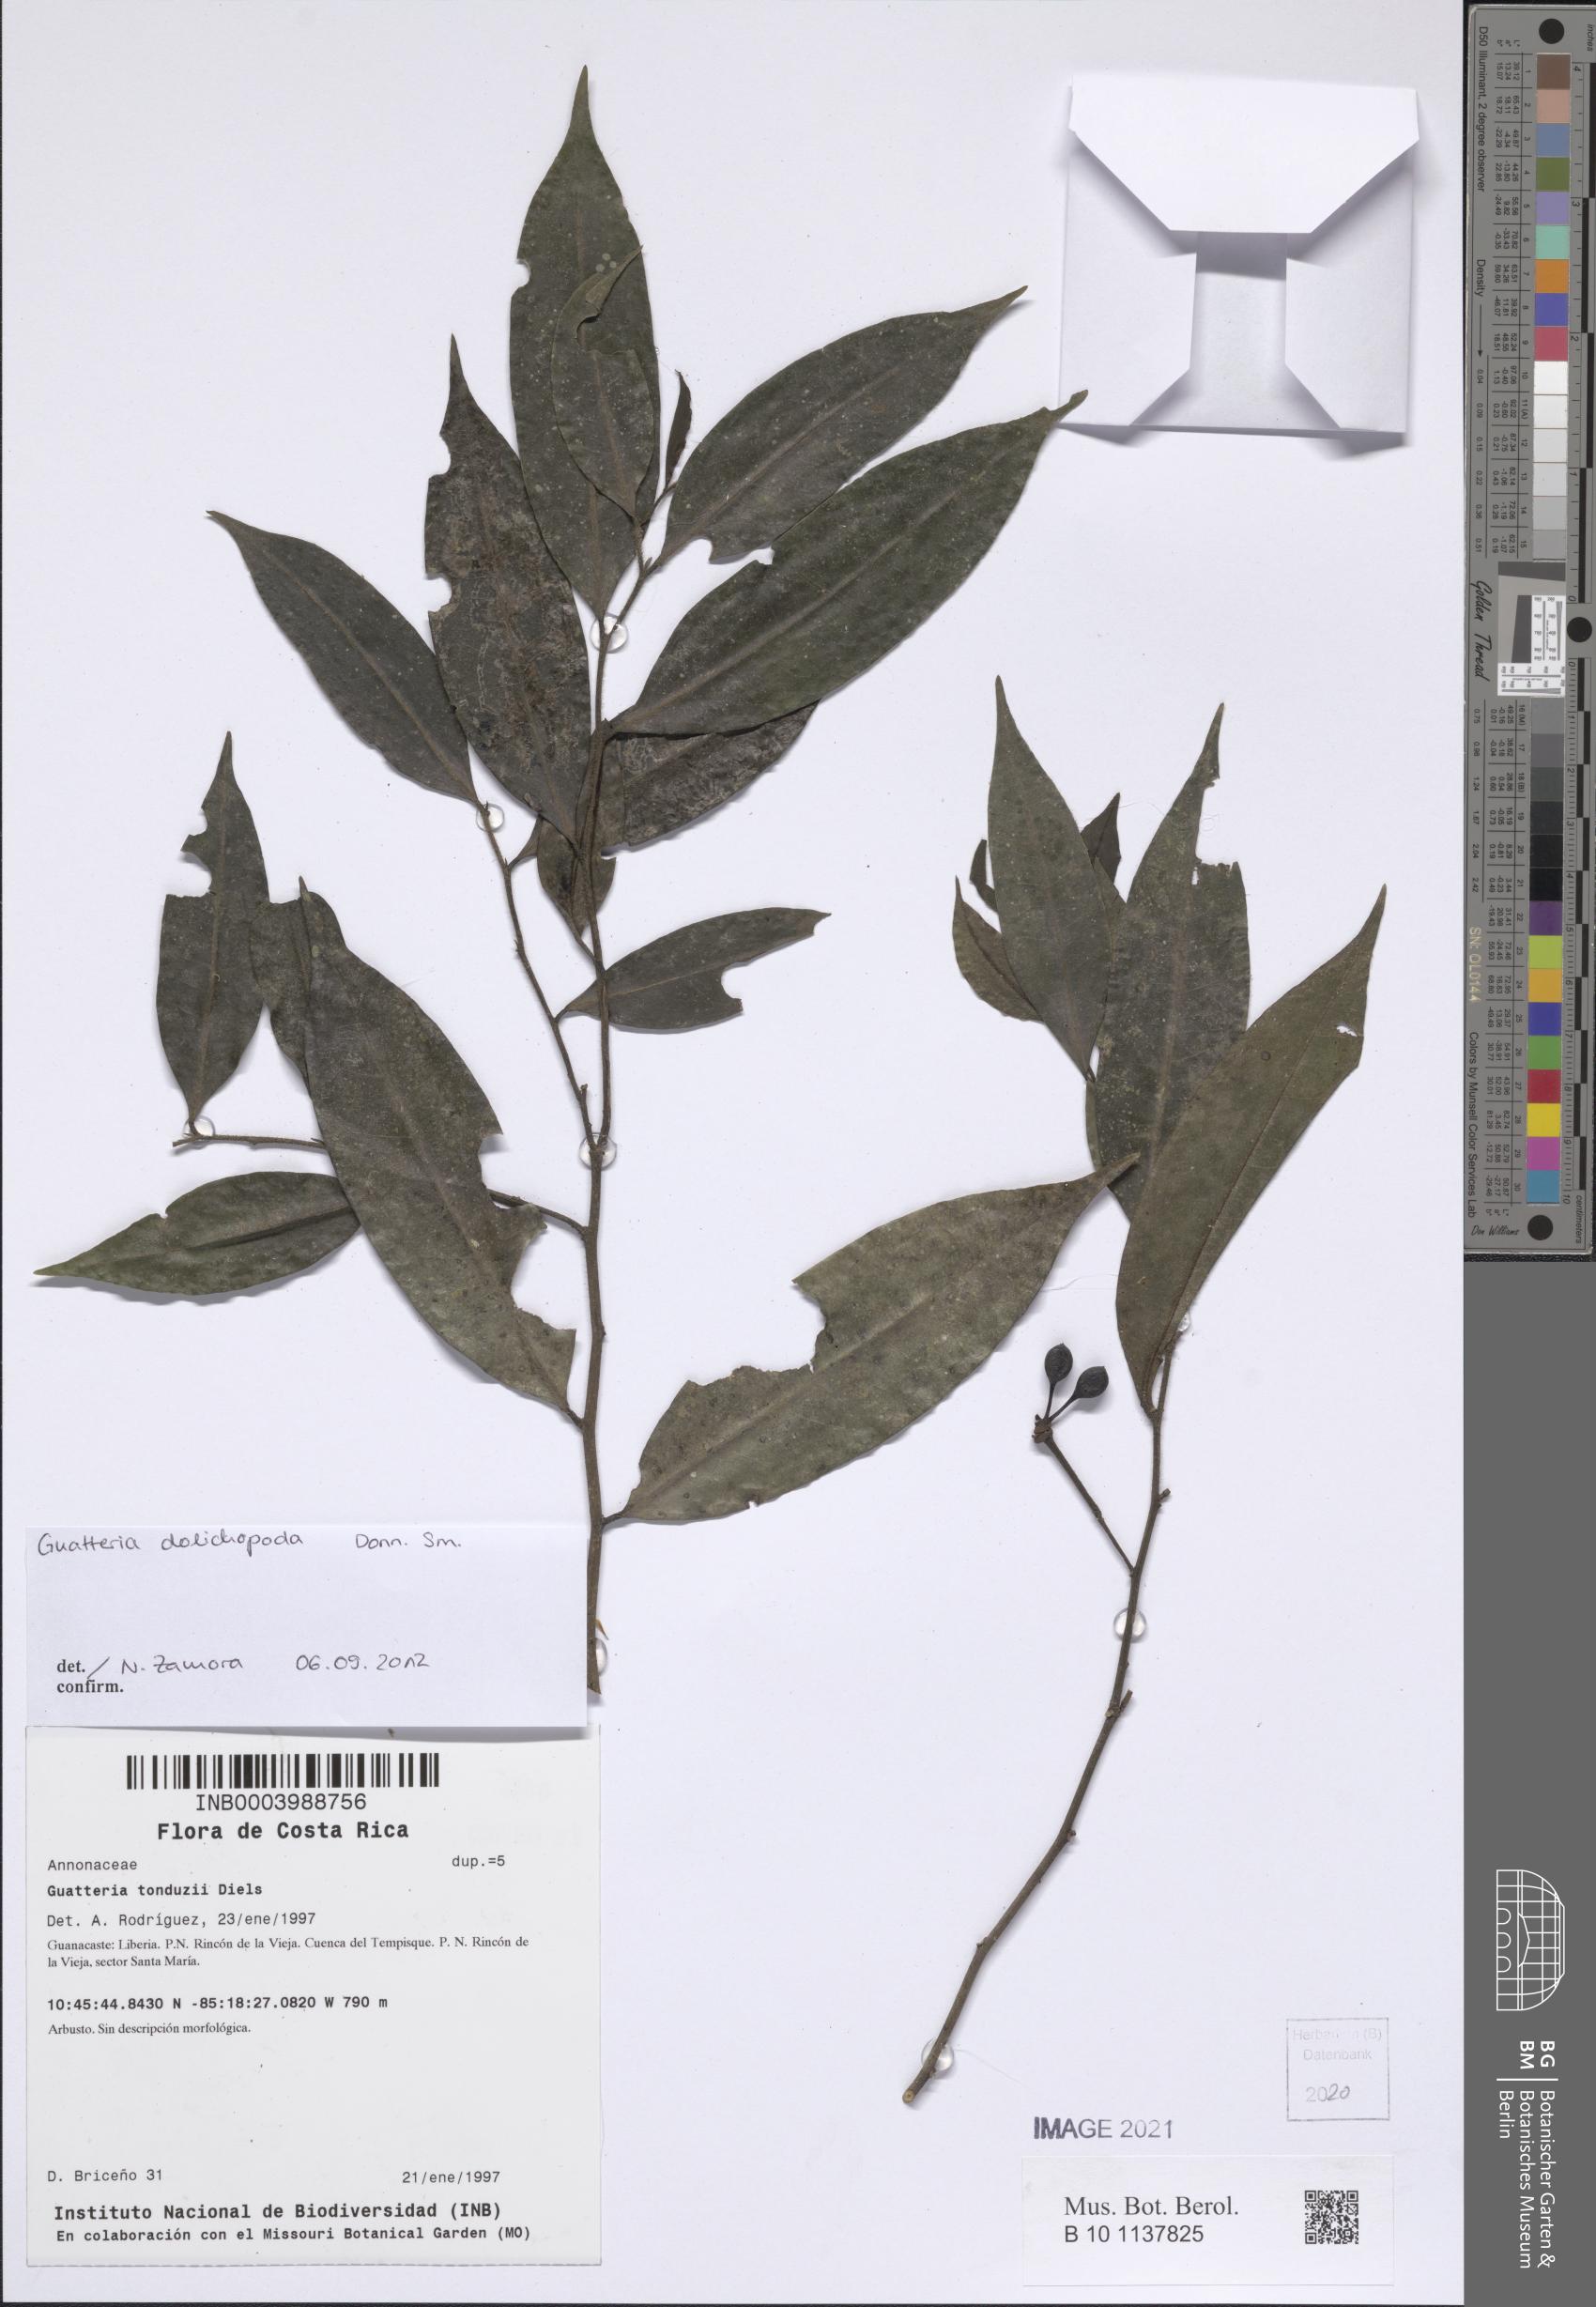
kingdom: Plantae
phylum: Tracheophyta
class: Magnoliopsida
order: Magnoliales
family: Annonaceae
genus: Guatteria
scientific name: Guatteria dolichopoda
